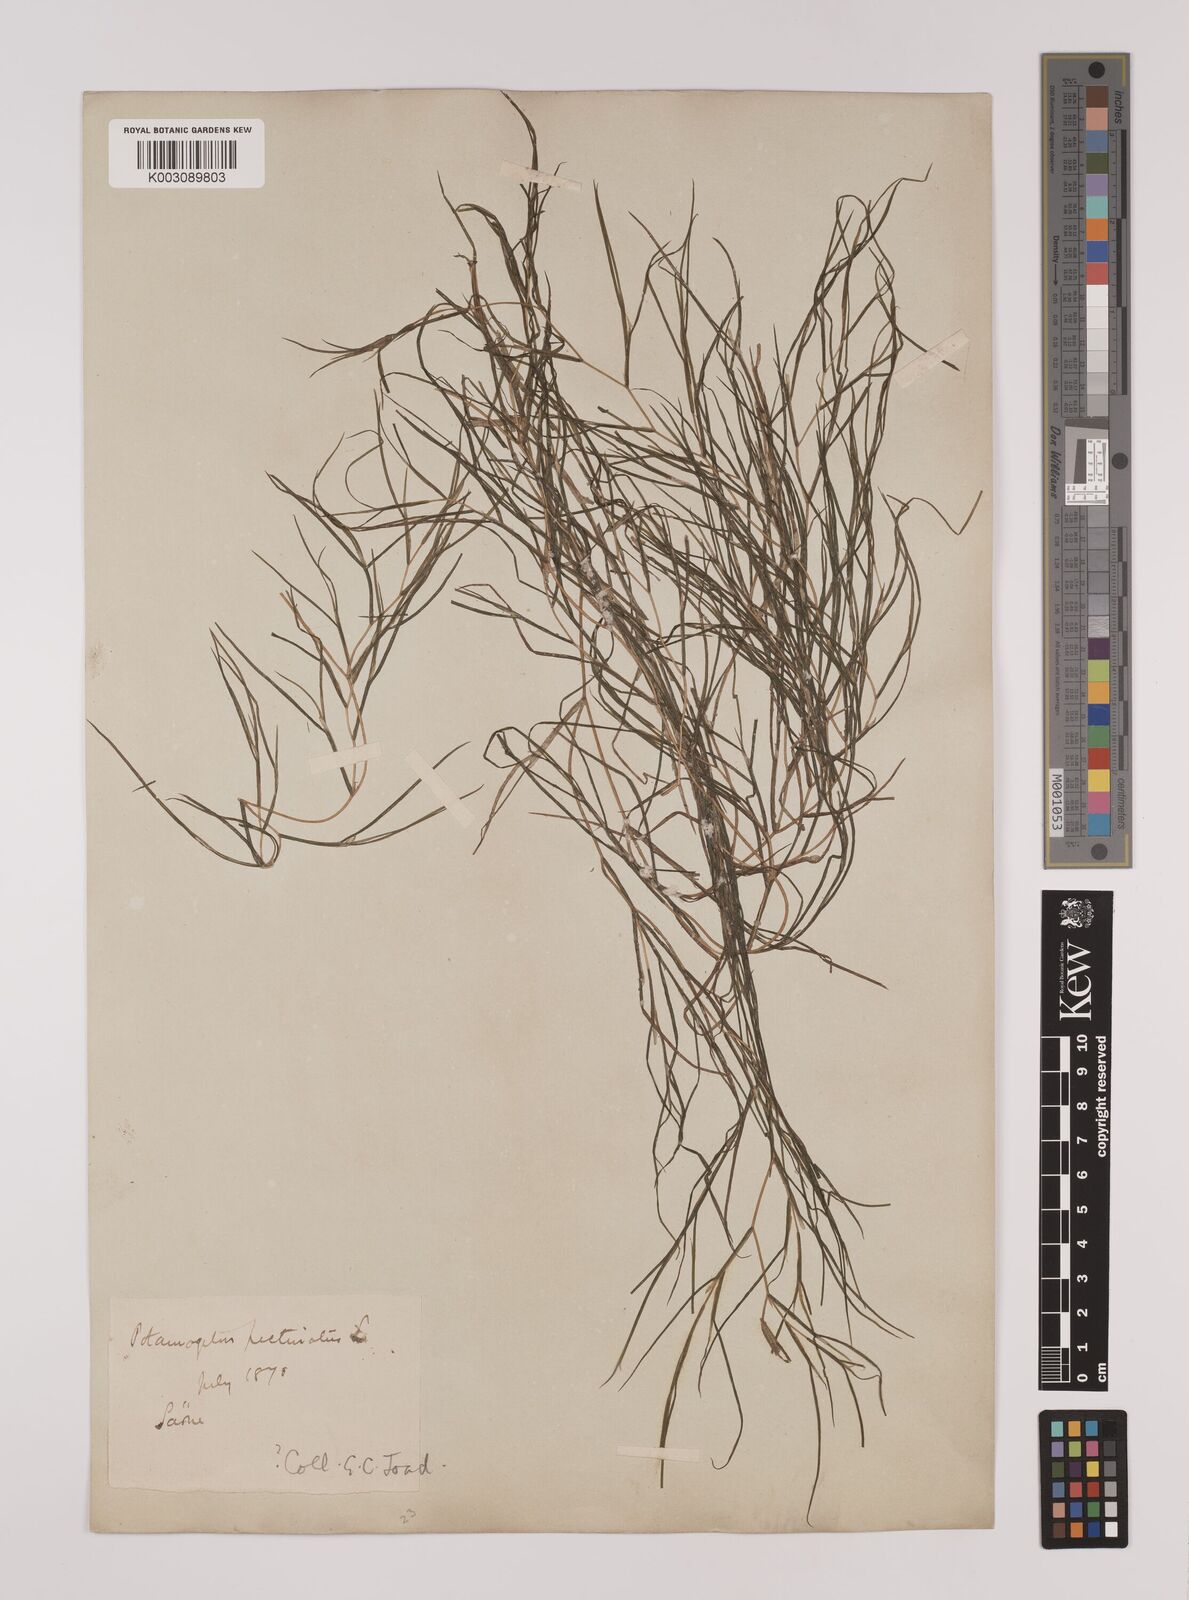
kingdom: Plantae
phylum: Tracheophyta
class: Liliopsida
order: Alismatales
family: Potamogetonaceae
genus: Stuckenia
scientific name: Stuckenia pectinata
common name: Sago pondweed
